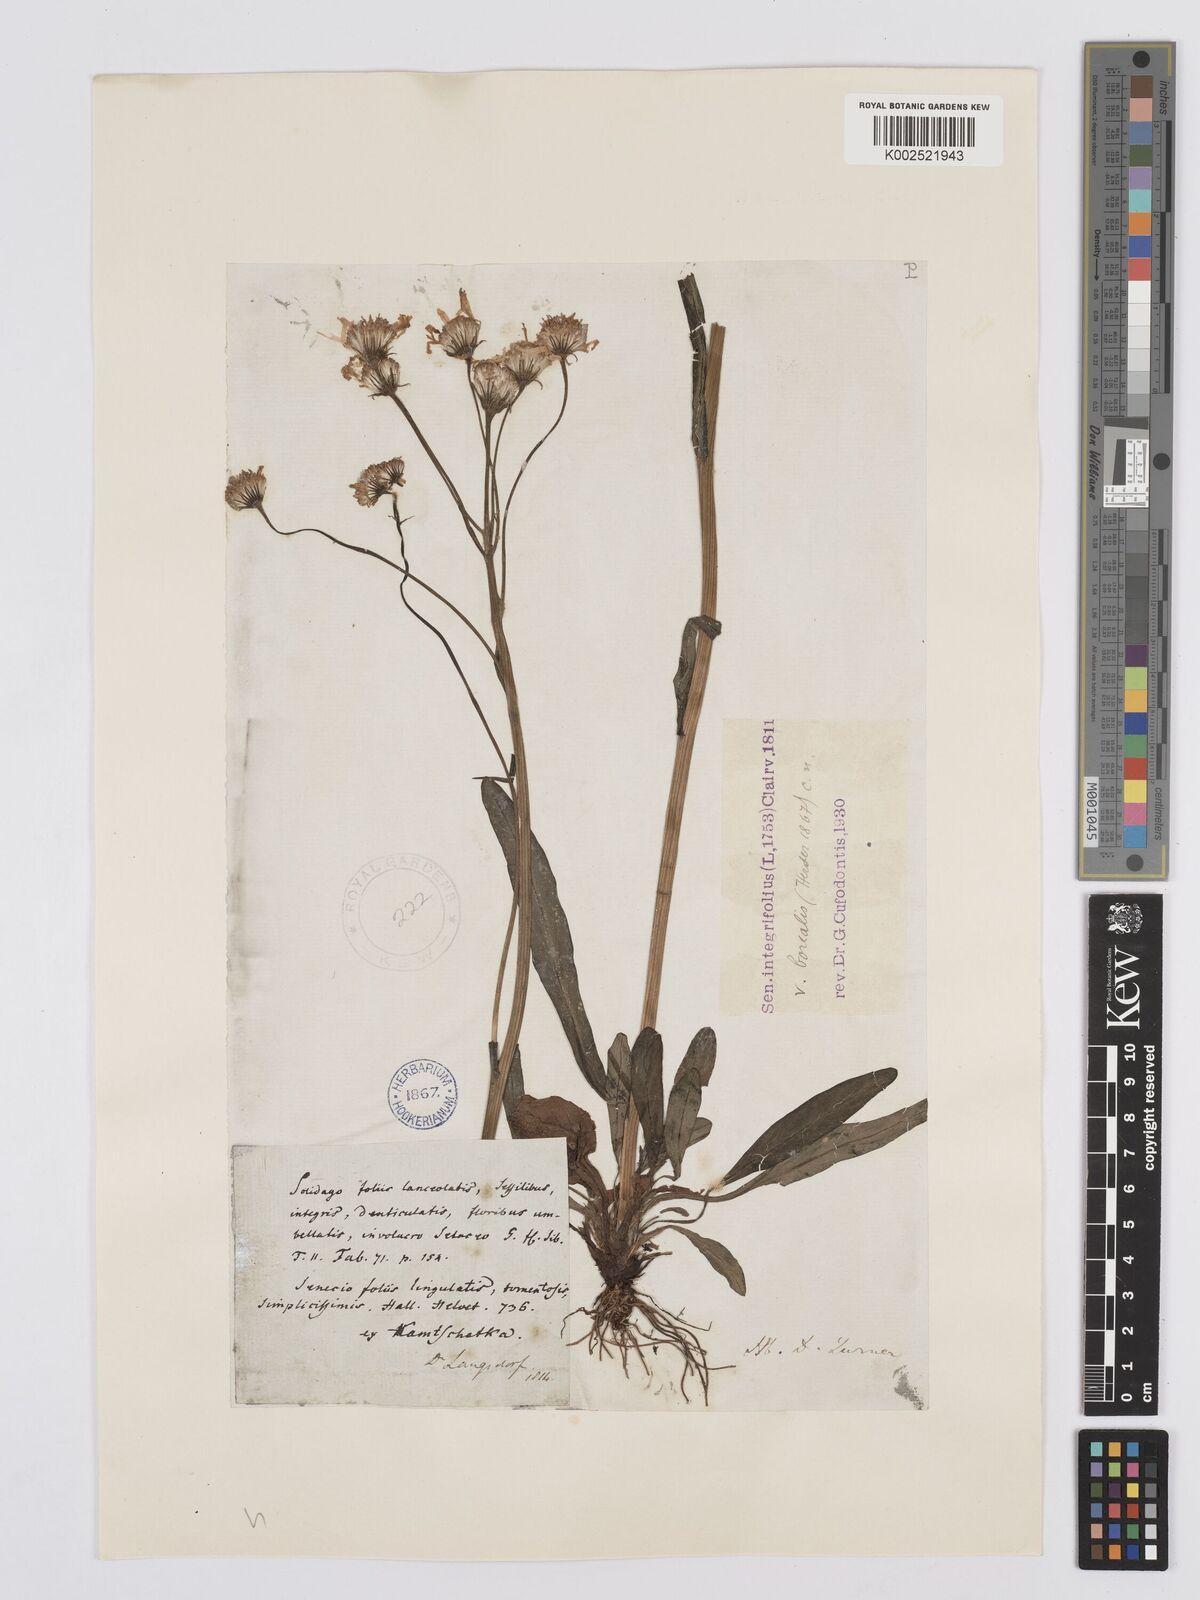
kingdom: Plantae
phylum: Tracheophyta
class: Magnoliopsida
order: Asterales
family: Asteraceae
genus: Tephroseris
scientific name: Tephroseris integrifolia
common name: Field fleawort
